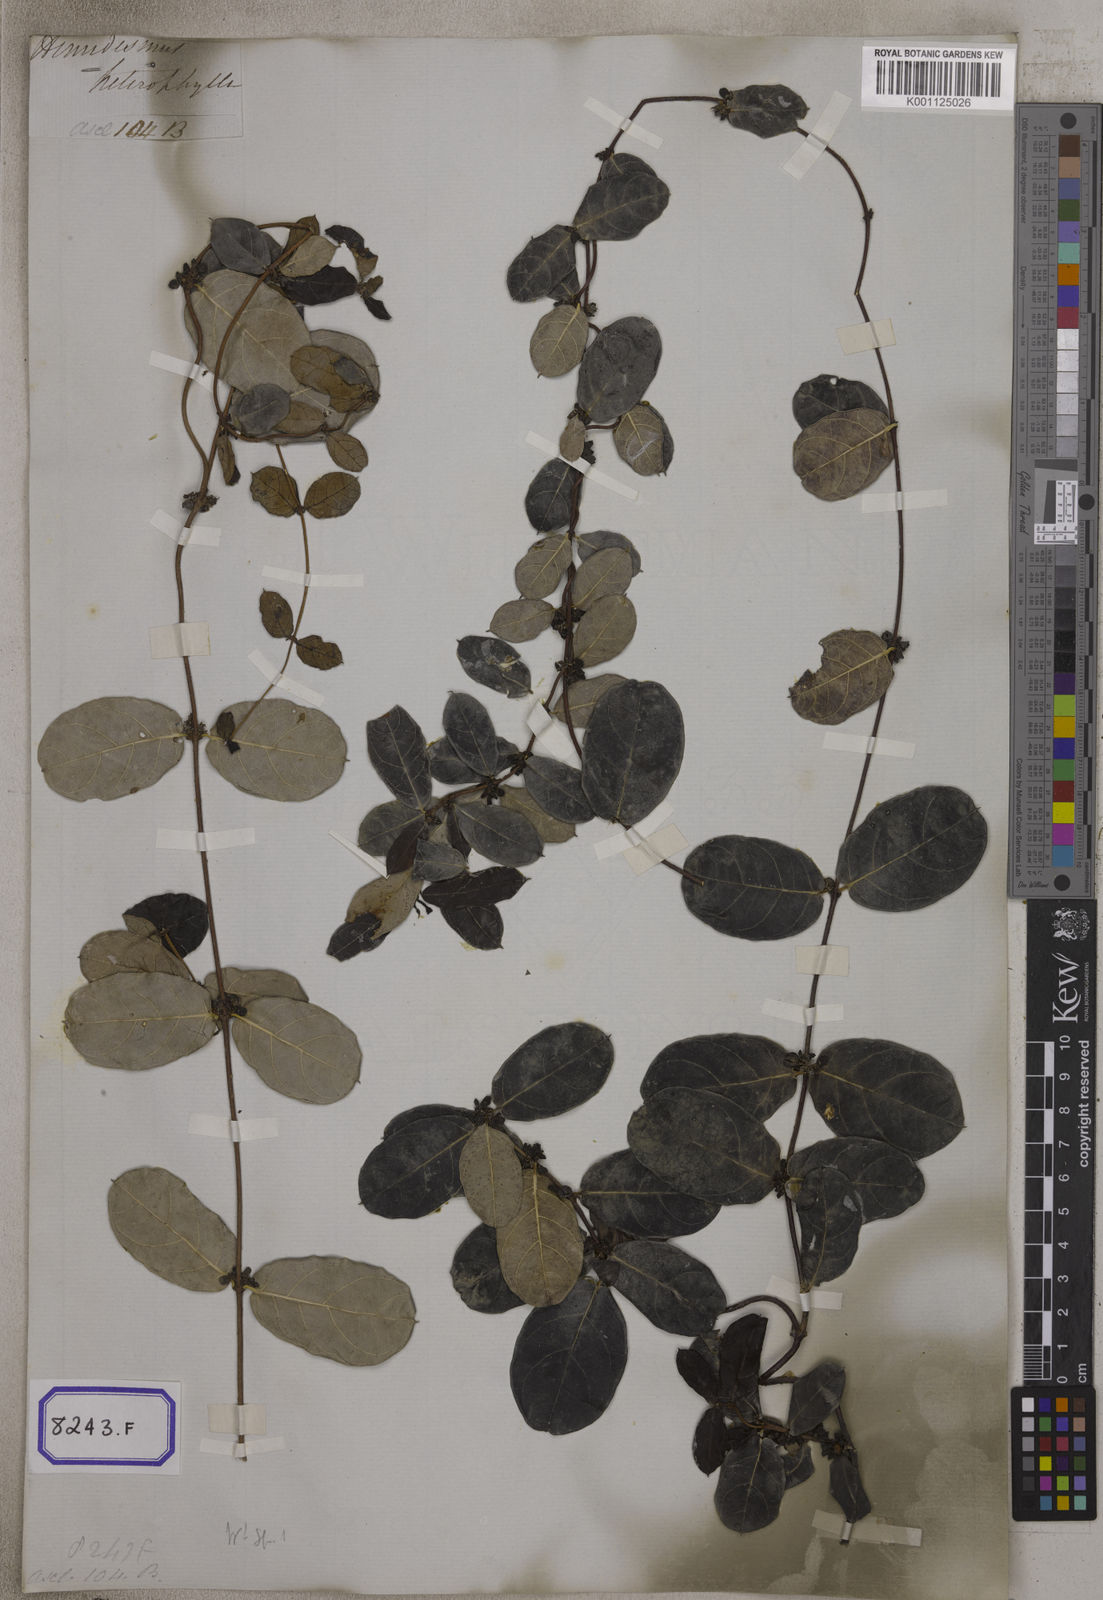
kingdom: Plantae
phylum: Tracheophyta
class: Magnoliopsida
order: Gentianales
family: Apocynaceae
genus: Hemidesmus
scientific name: Hemidesmus indicus
